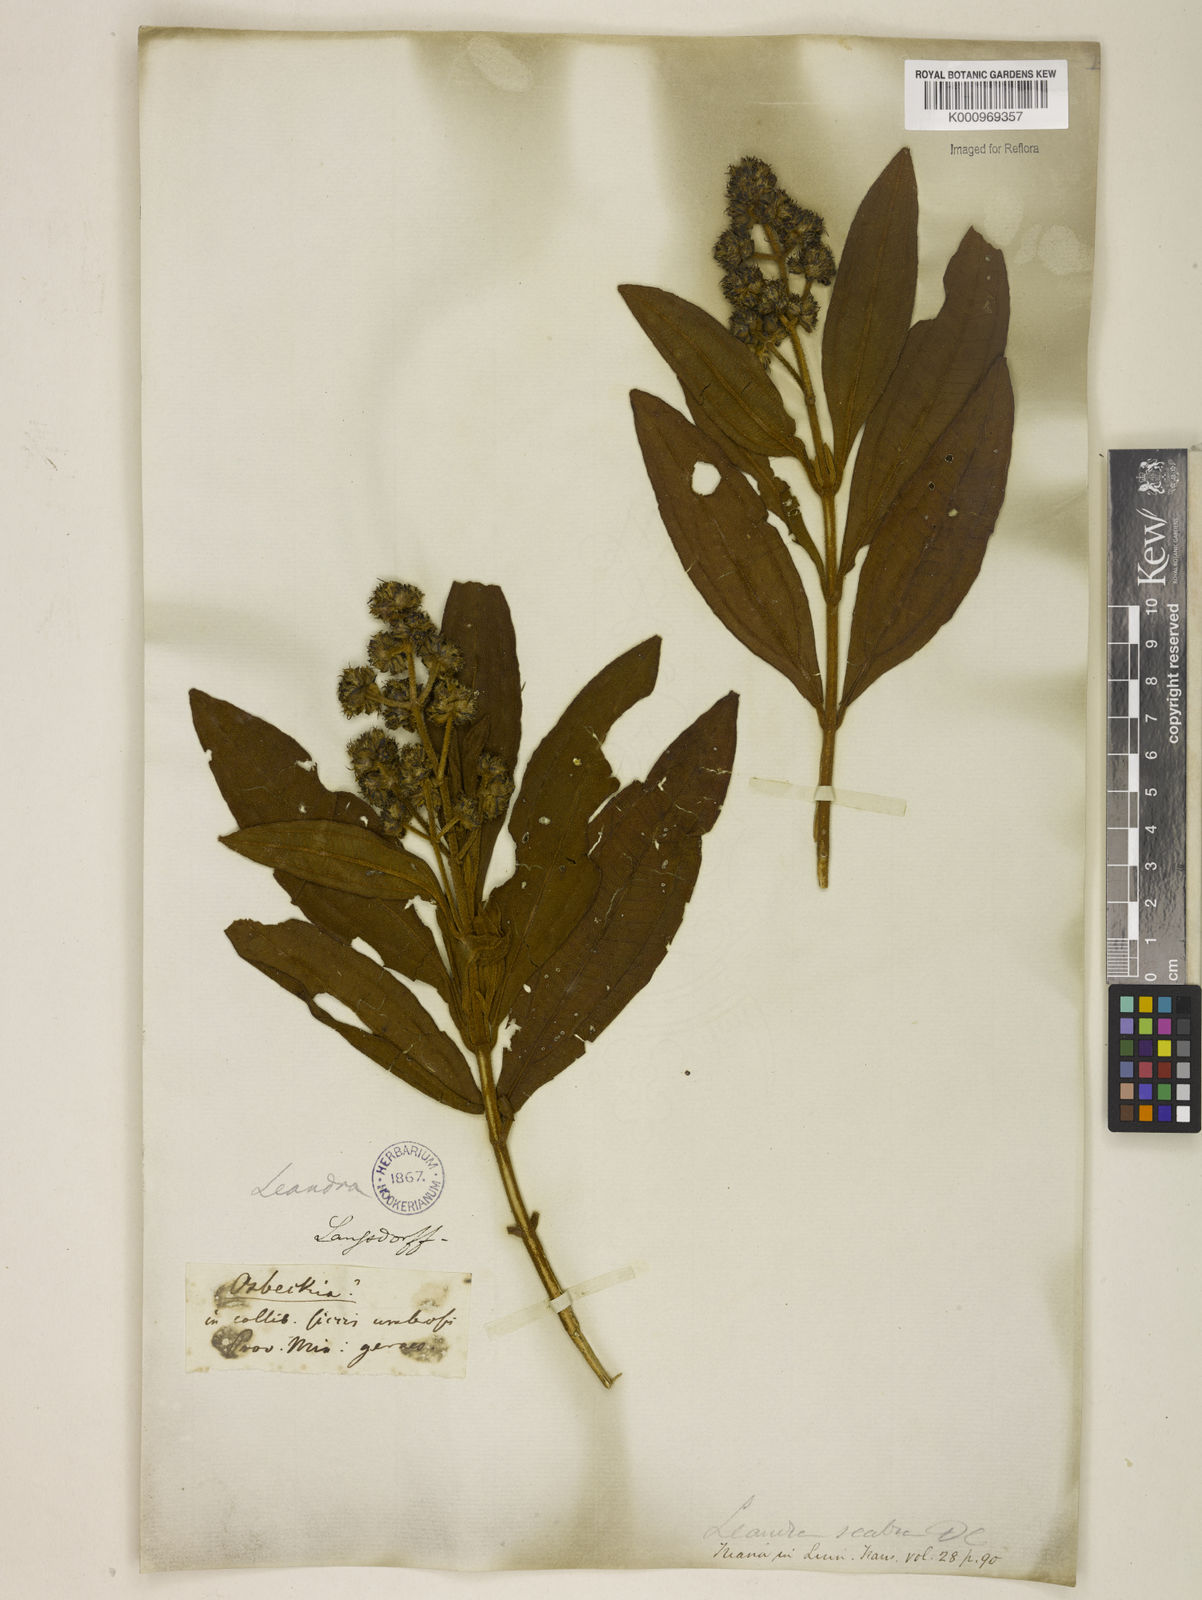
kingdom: Plantae
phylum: Tracheophyta
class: Magnoliopsida
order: Myrtales
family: Melastomataceae
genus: Miconia
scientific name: Miconia melastomoides
